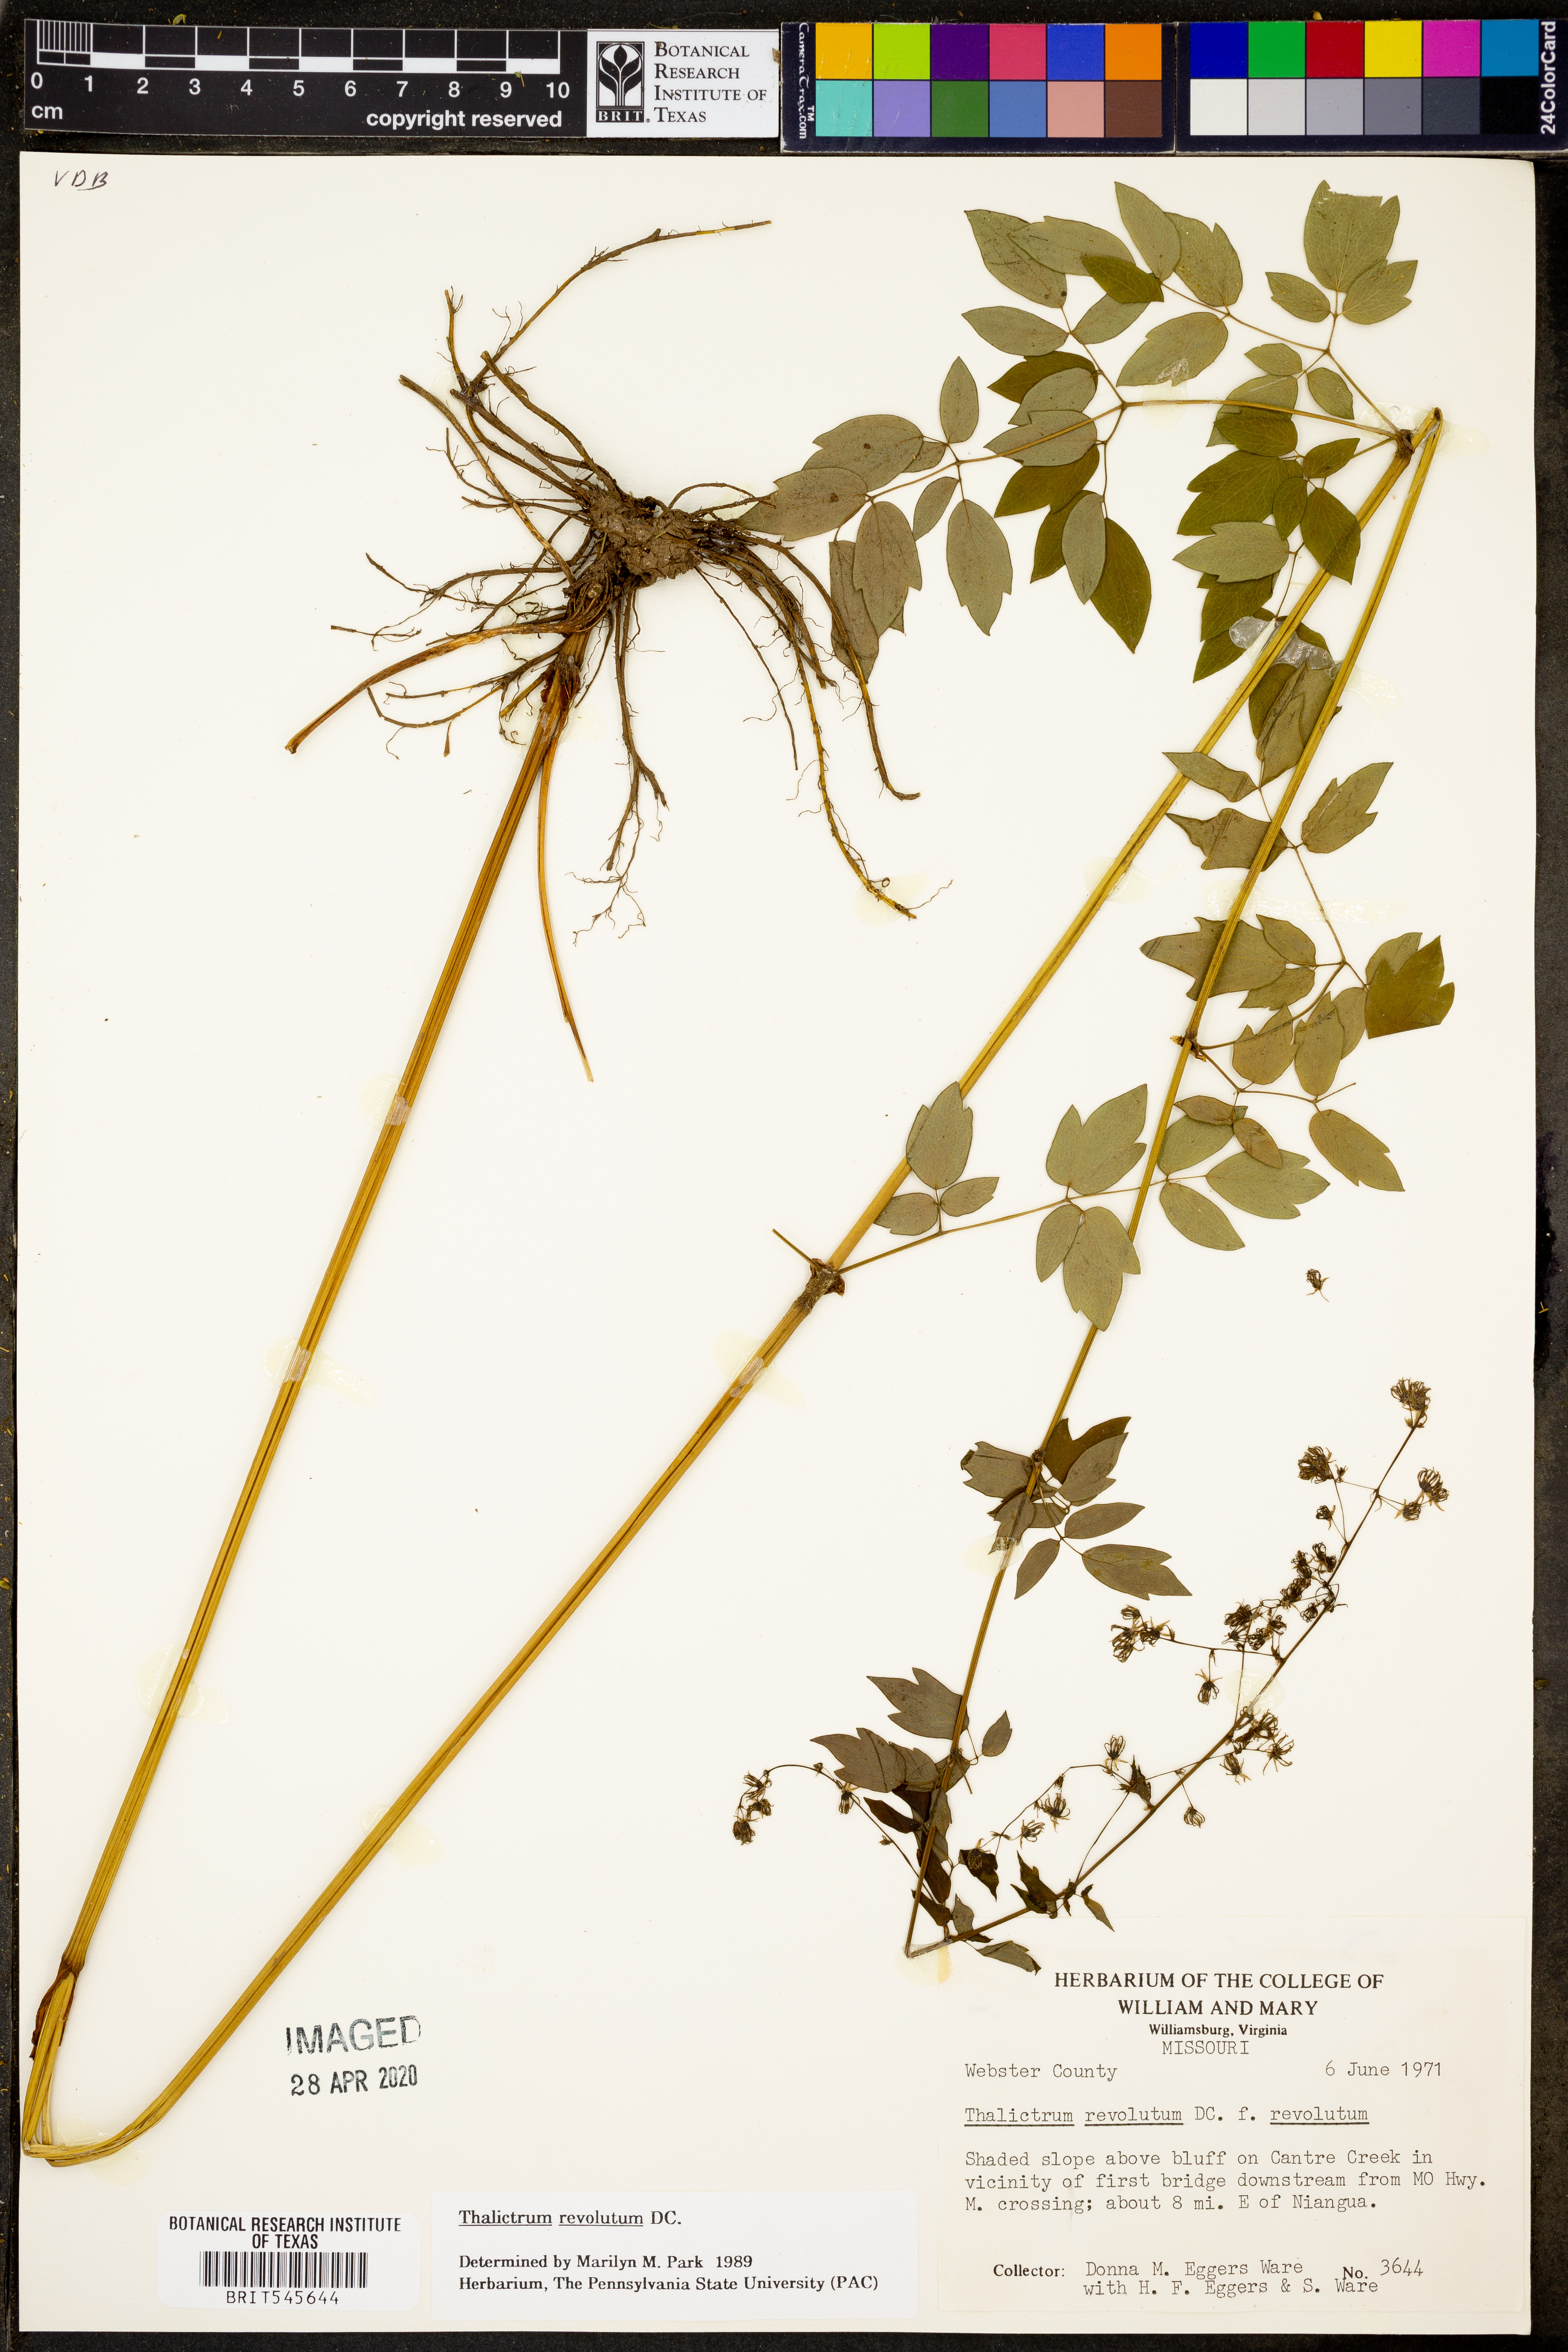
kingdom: Plantae
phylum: Tracheophyta
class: Magnoliopsida
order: Ranunculales
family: Ranunculaceae
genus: Thalictrum
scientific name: Thalictrum revolutum
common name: Waxy meadow-rue
